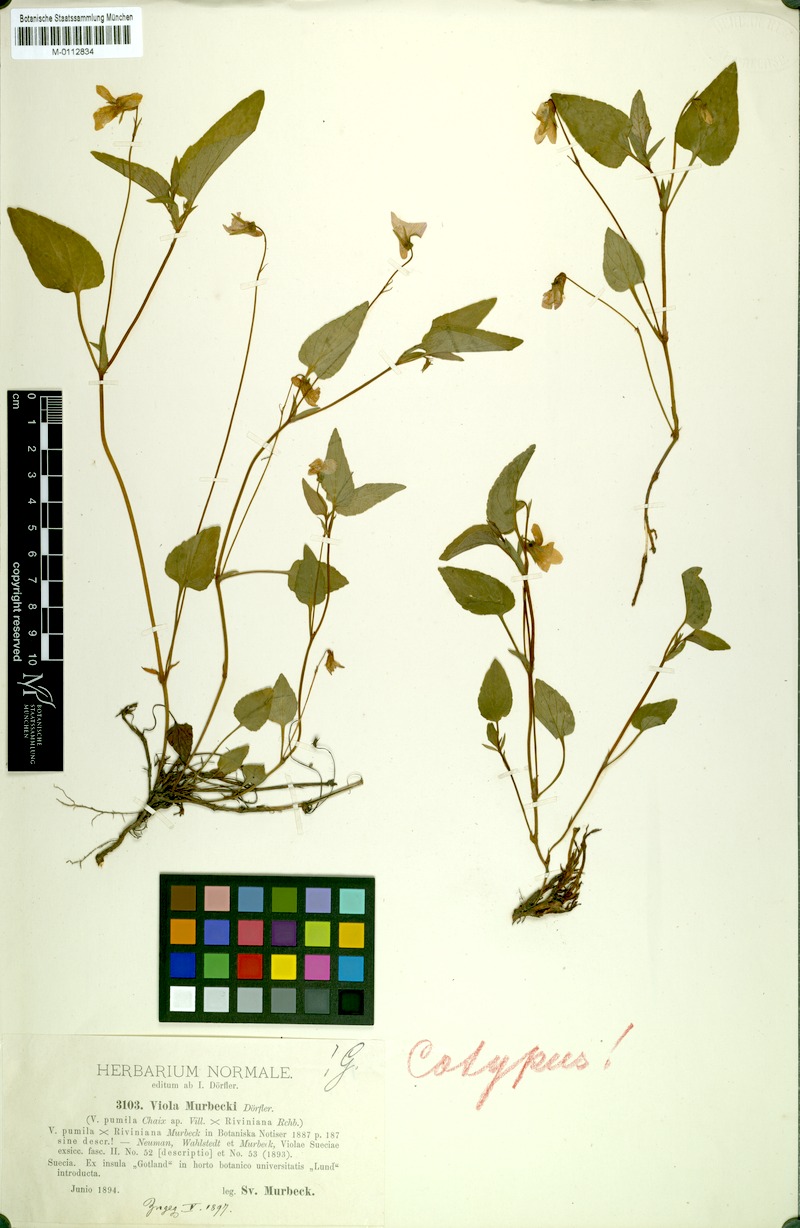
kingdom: Plantae
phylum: Tracheophyta
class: Magnoliopsida
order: Malpighiales
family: Violaceae
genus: Viola
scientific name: Viola murbeckii
